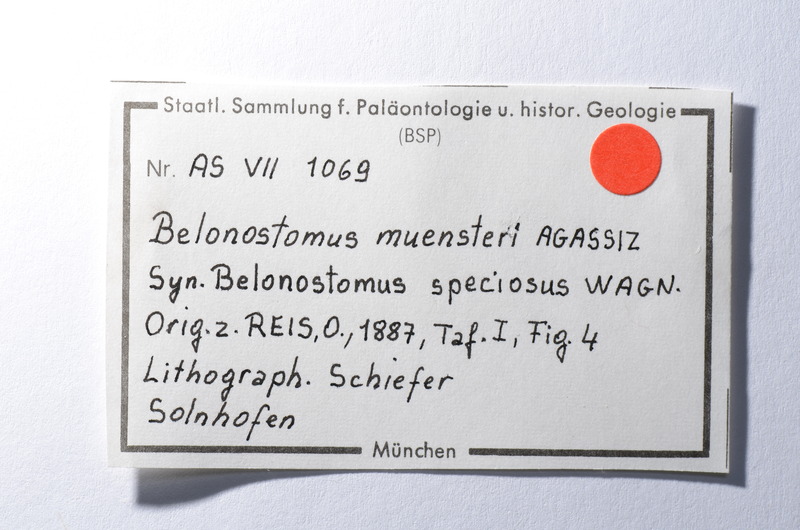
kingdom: Animalia
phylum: Chordata
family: Aspidorhynchidae
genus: Belonostomus
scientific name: Belonostomus muensteri
